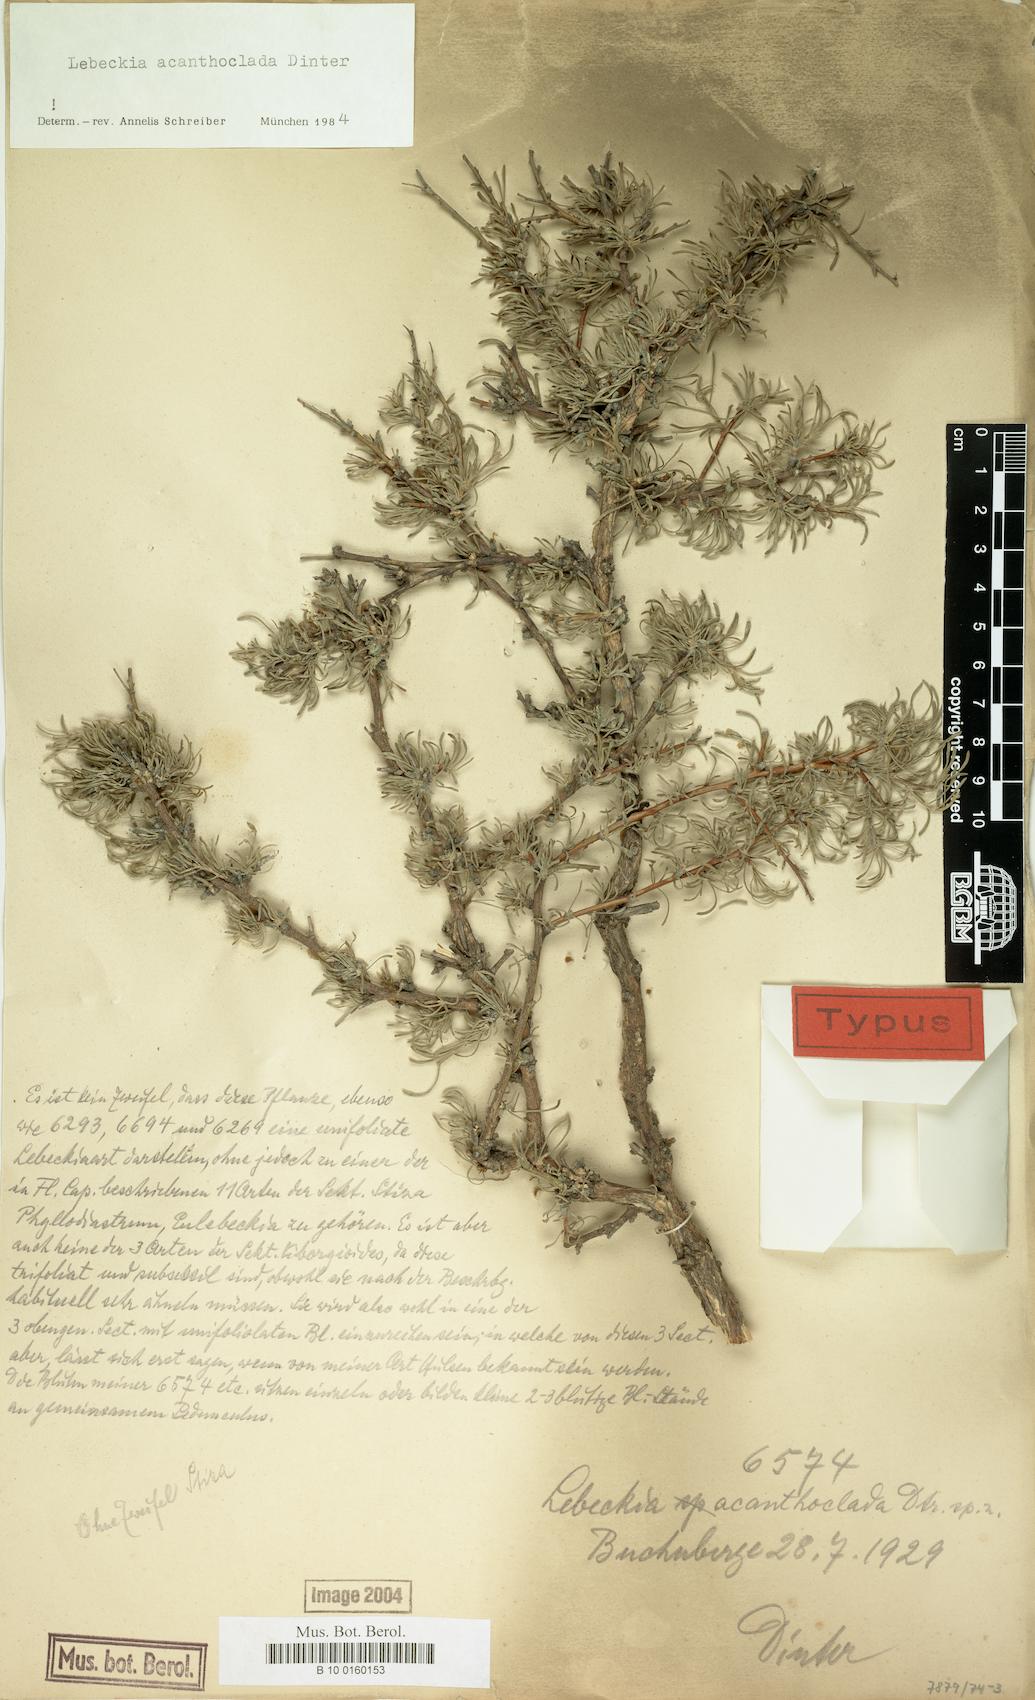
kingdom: Plantae
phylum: Tracheophyta
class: Magnoliopsida
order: Fabales
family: Fabaceae
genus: Calobota
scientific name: Calobota acanthoclada
